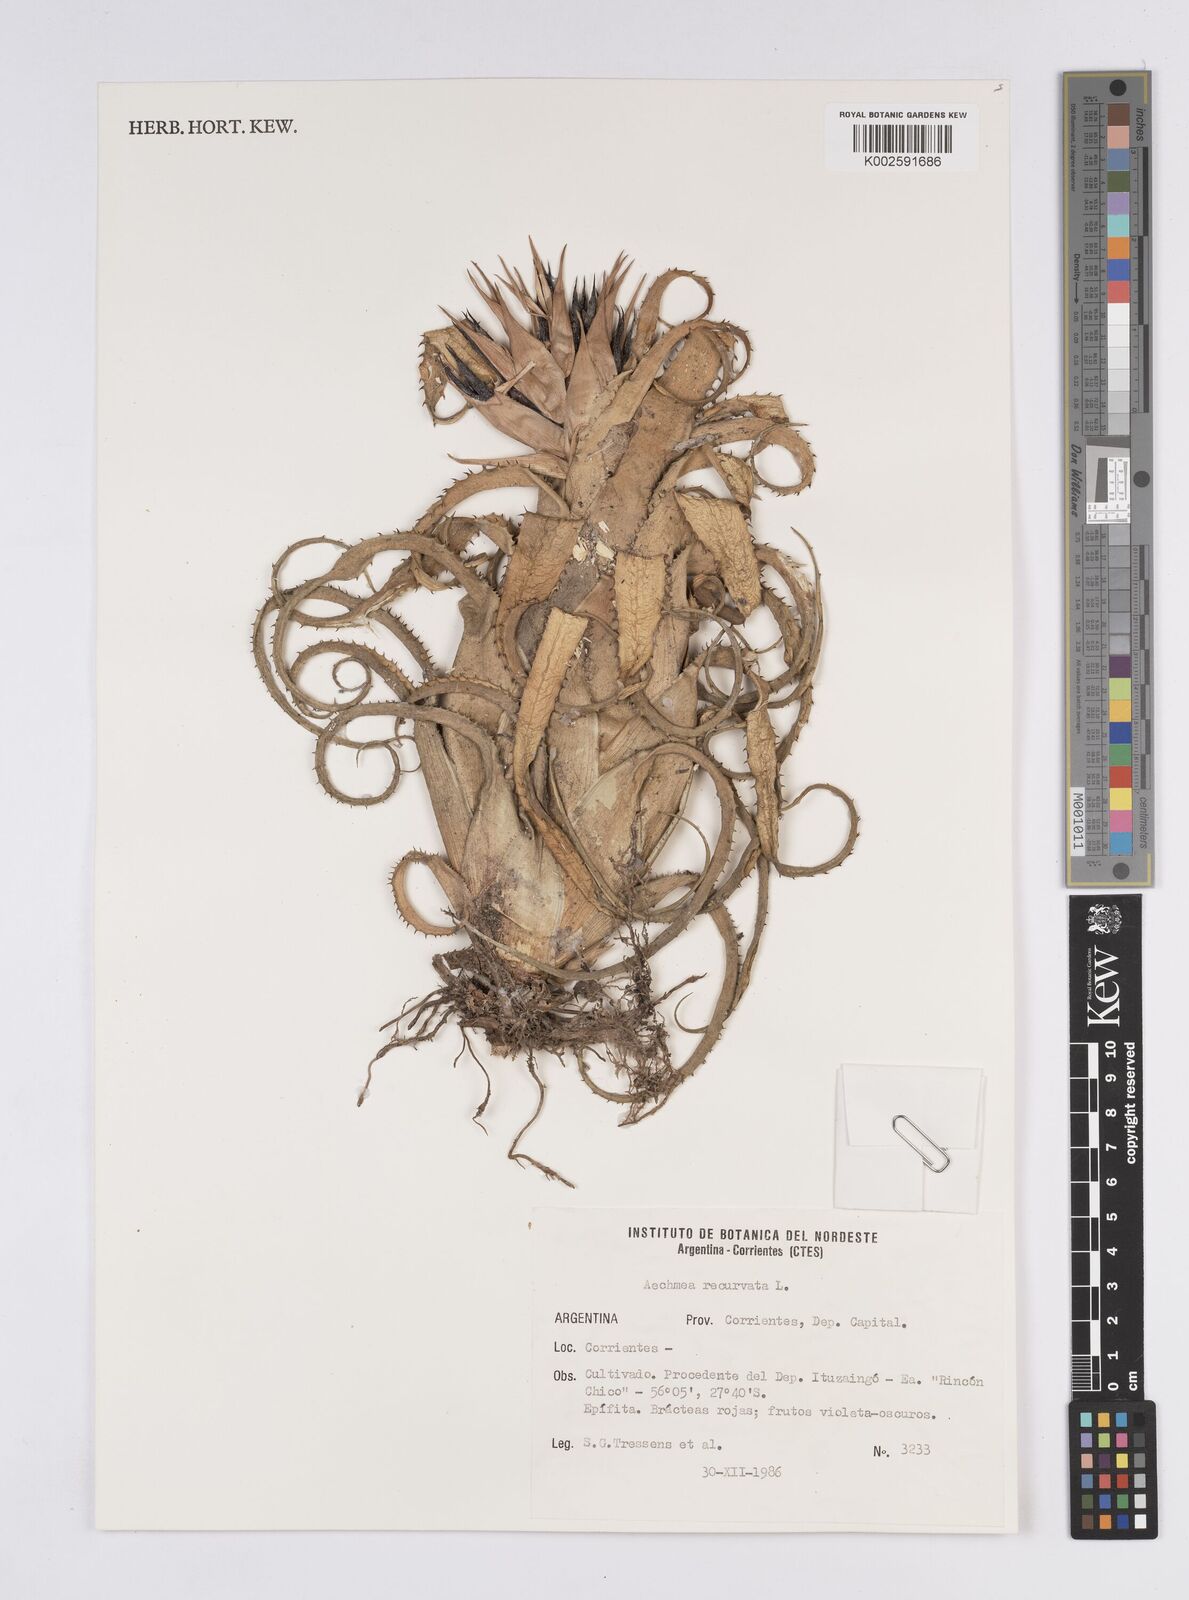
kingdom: Plantae
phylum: Tracheophyta
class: Liliopsida
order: Poales
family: Bromeliaceae
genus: Aechmea
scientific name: Aechmea recurvata
